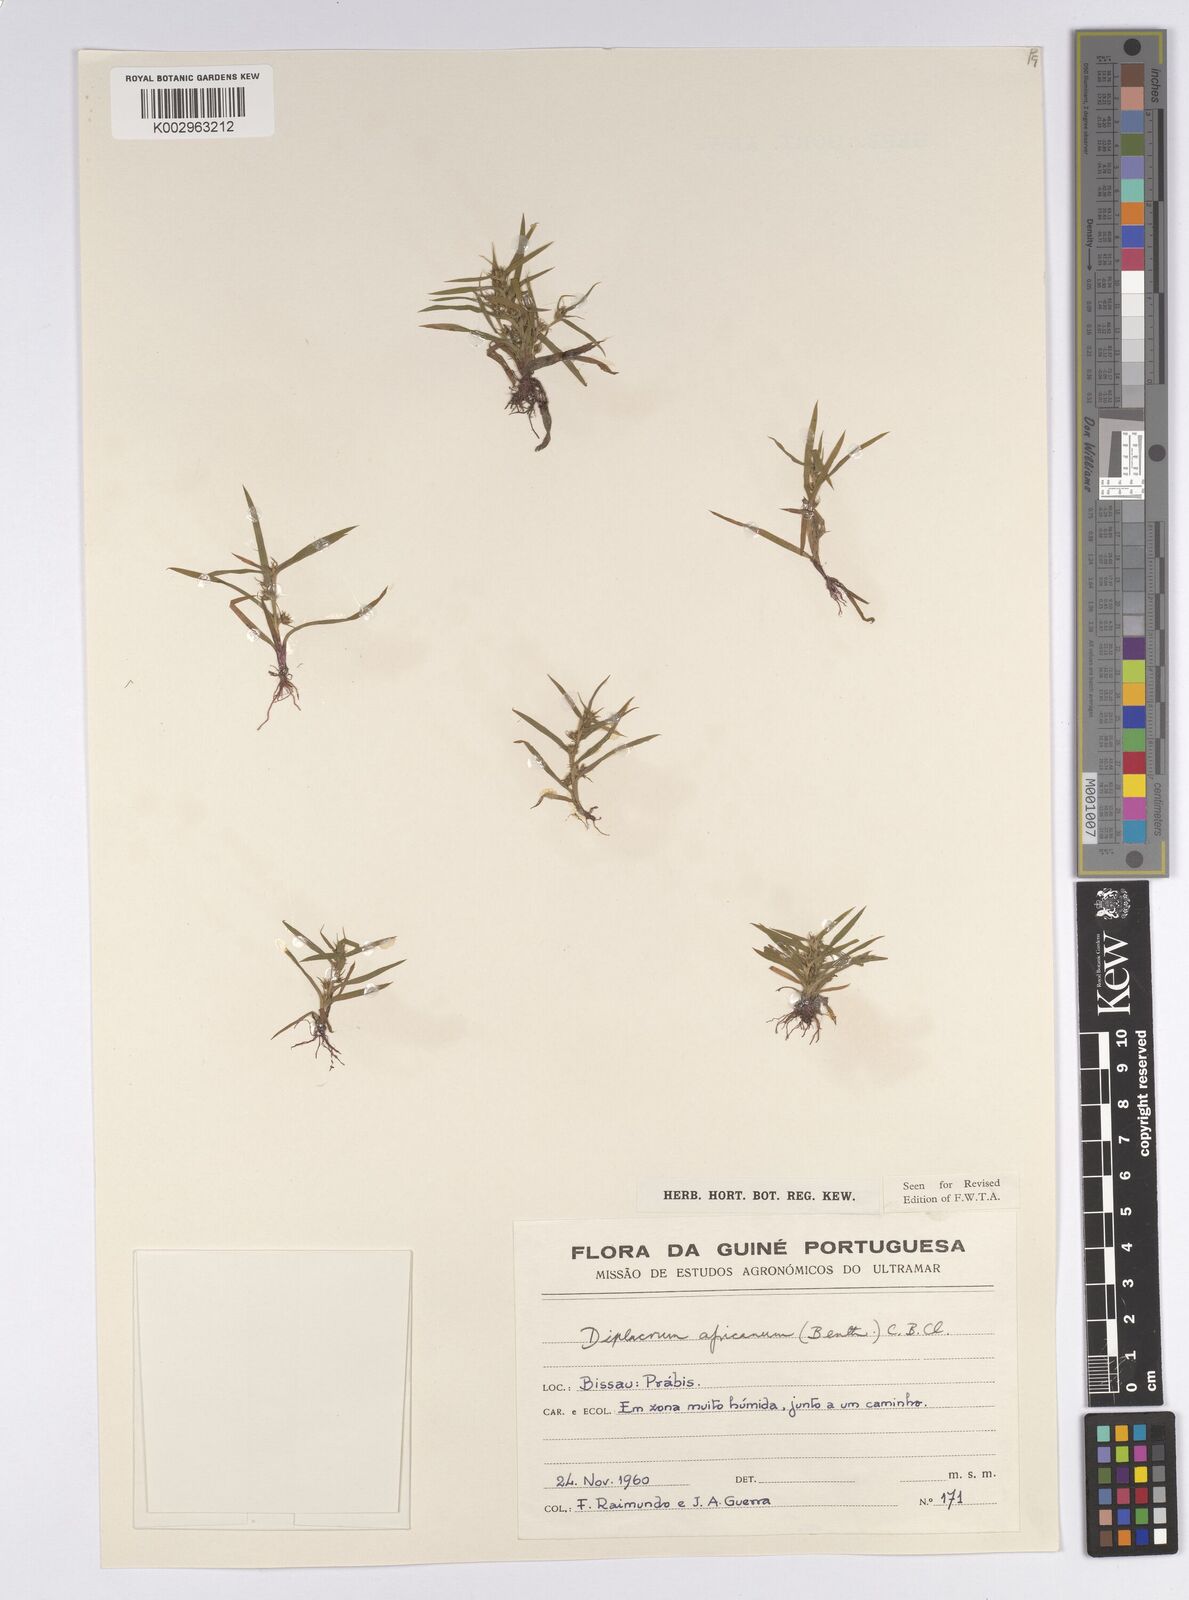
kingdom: Plantae
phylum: Tracheophyta
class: Liliopsida
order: Poales
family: Cyperaceae
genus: Diplacrum
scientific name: Diplacrum africanum
